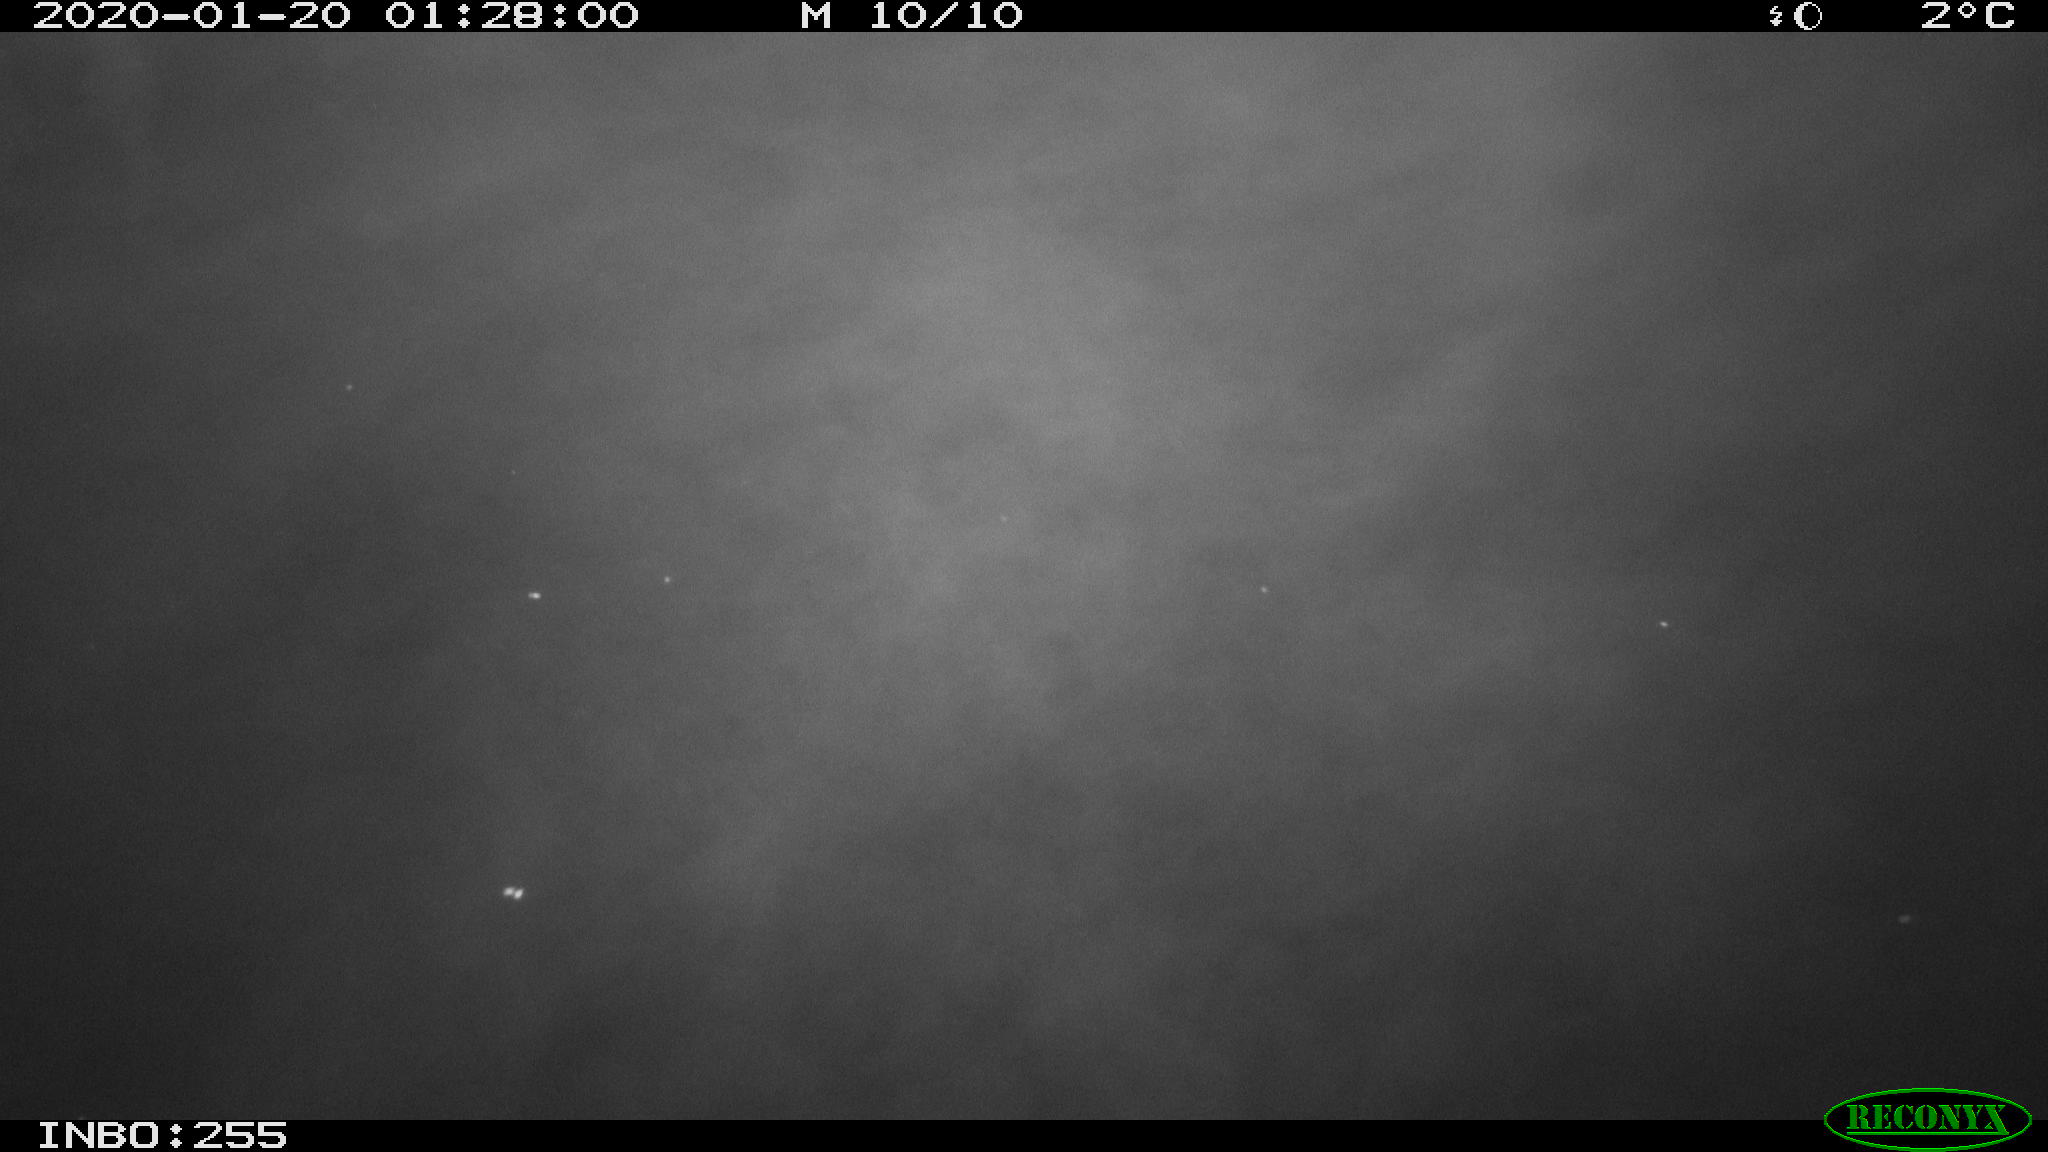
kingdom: Animalia
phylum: Chordata
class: Mammalia
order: Rodentia
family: Cricetidae
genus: Ondatra
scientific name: Ondatra zibethicus
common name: Muskrat
